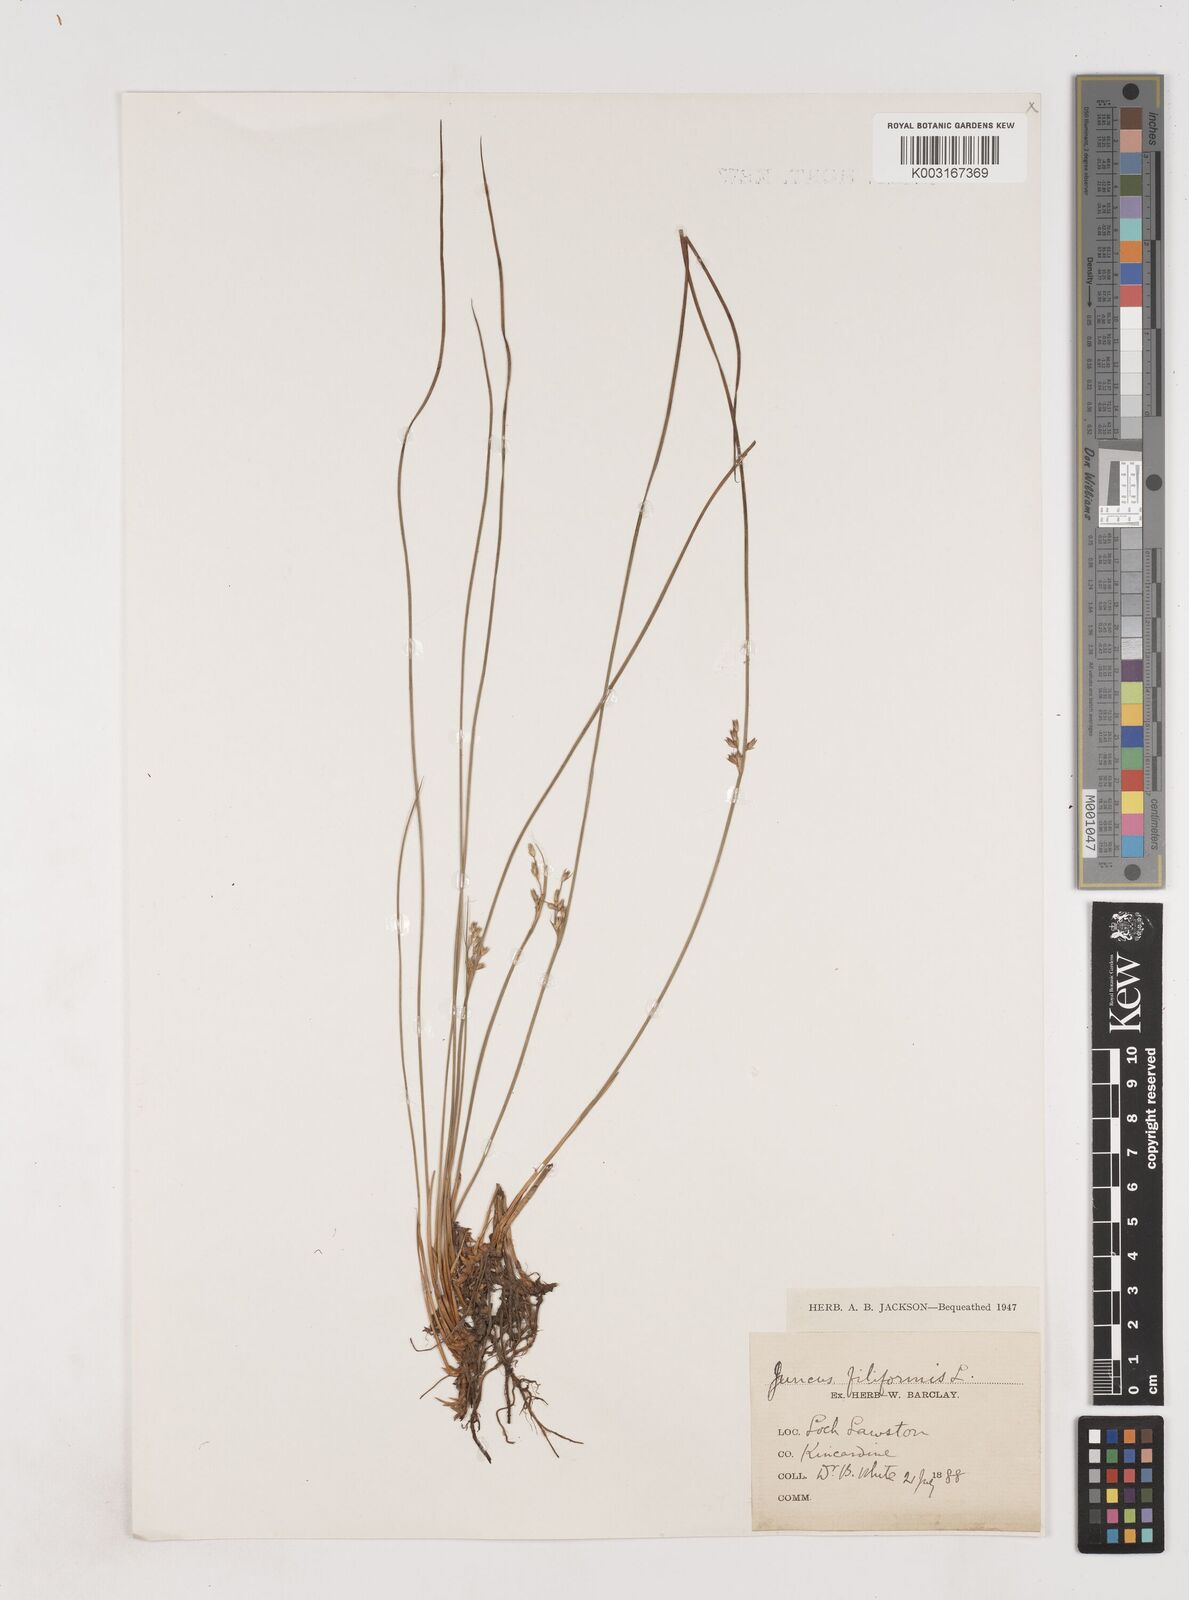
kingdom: Plantae
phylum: Tracheophyta
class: Liliopsida
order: Poales
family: Juncaceae
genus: Juncus
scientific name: Juncus filiformis
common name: Thread rush
